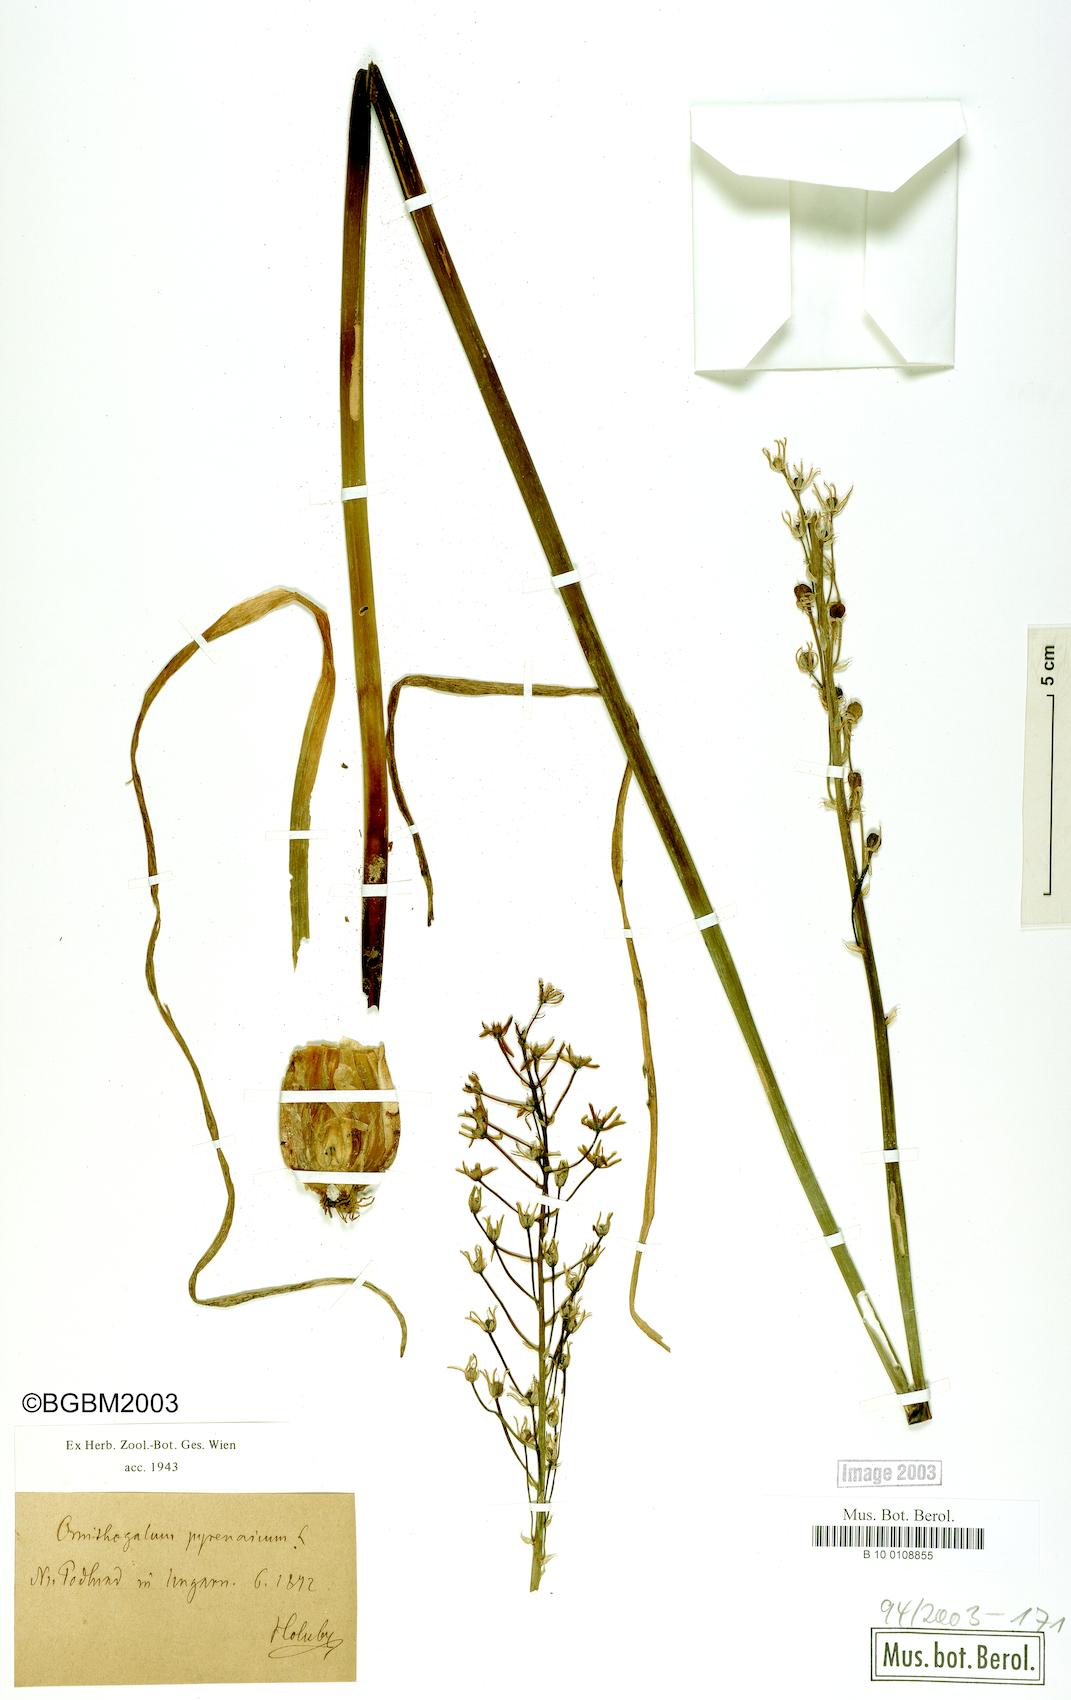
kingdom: Plantae
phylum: Tracheophyta
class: Liliopsida
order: Asparagales
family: Asparagaceae
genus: Ornithogalum
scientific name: Ornithogalum pyrenaicum
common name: Spiked star-of-bethlehem
